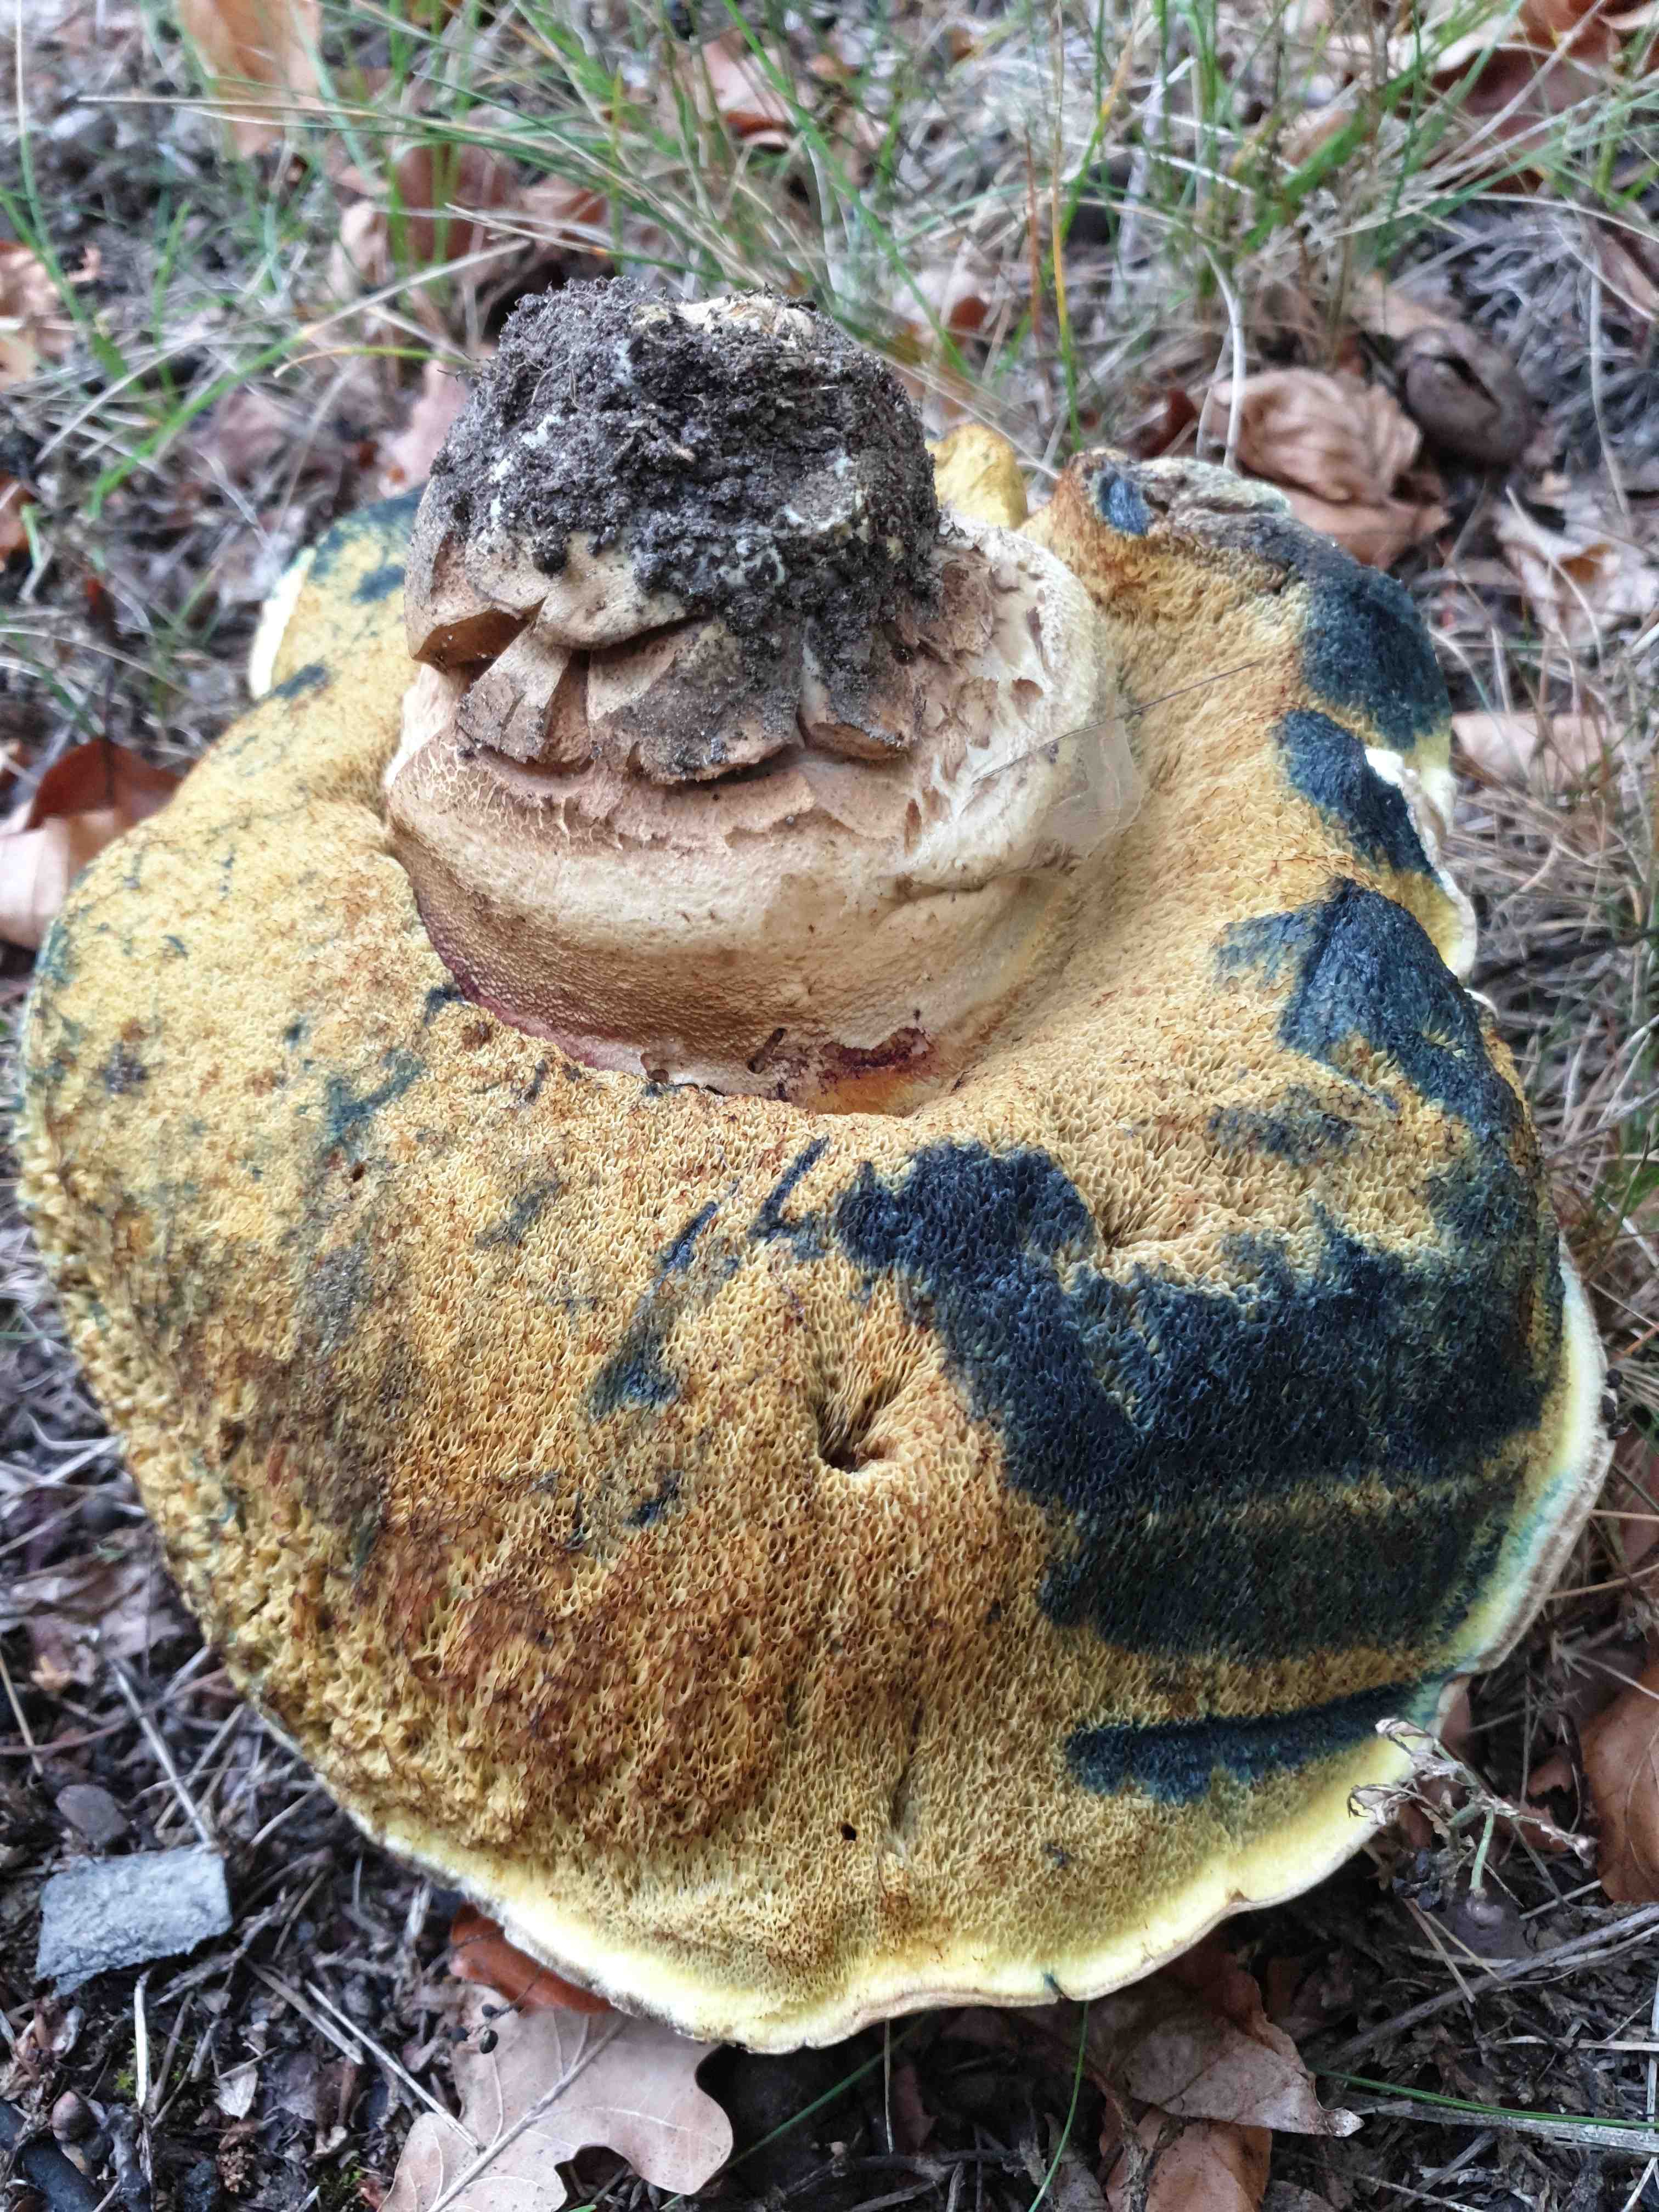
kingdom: Fungi
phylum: Basidiomycota
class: Agaricomycetes
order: Boletales
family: Boletaceae
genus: Caloboletus
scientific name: Caloboletus radicans
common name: rod-rørhat
